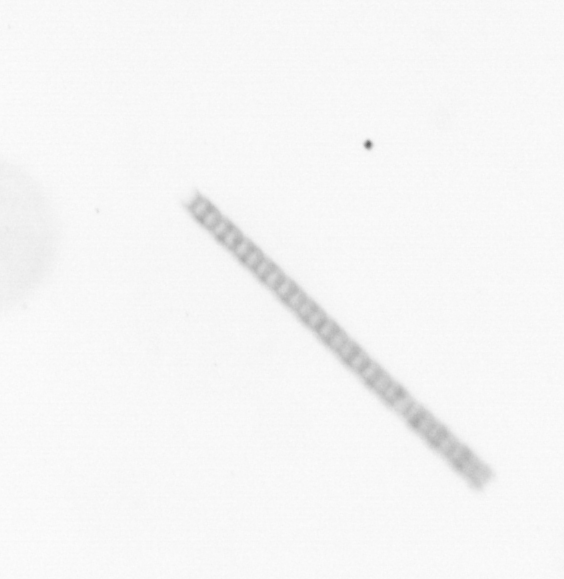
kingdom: Chromista
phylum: Ochrophyta
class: Bacillariophyceae
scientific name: Bacillariophyceae
